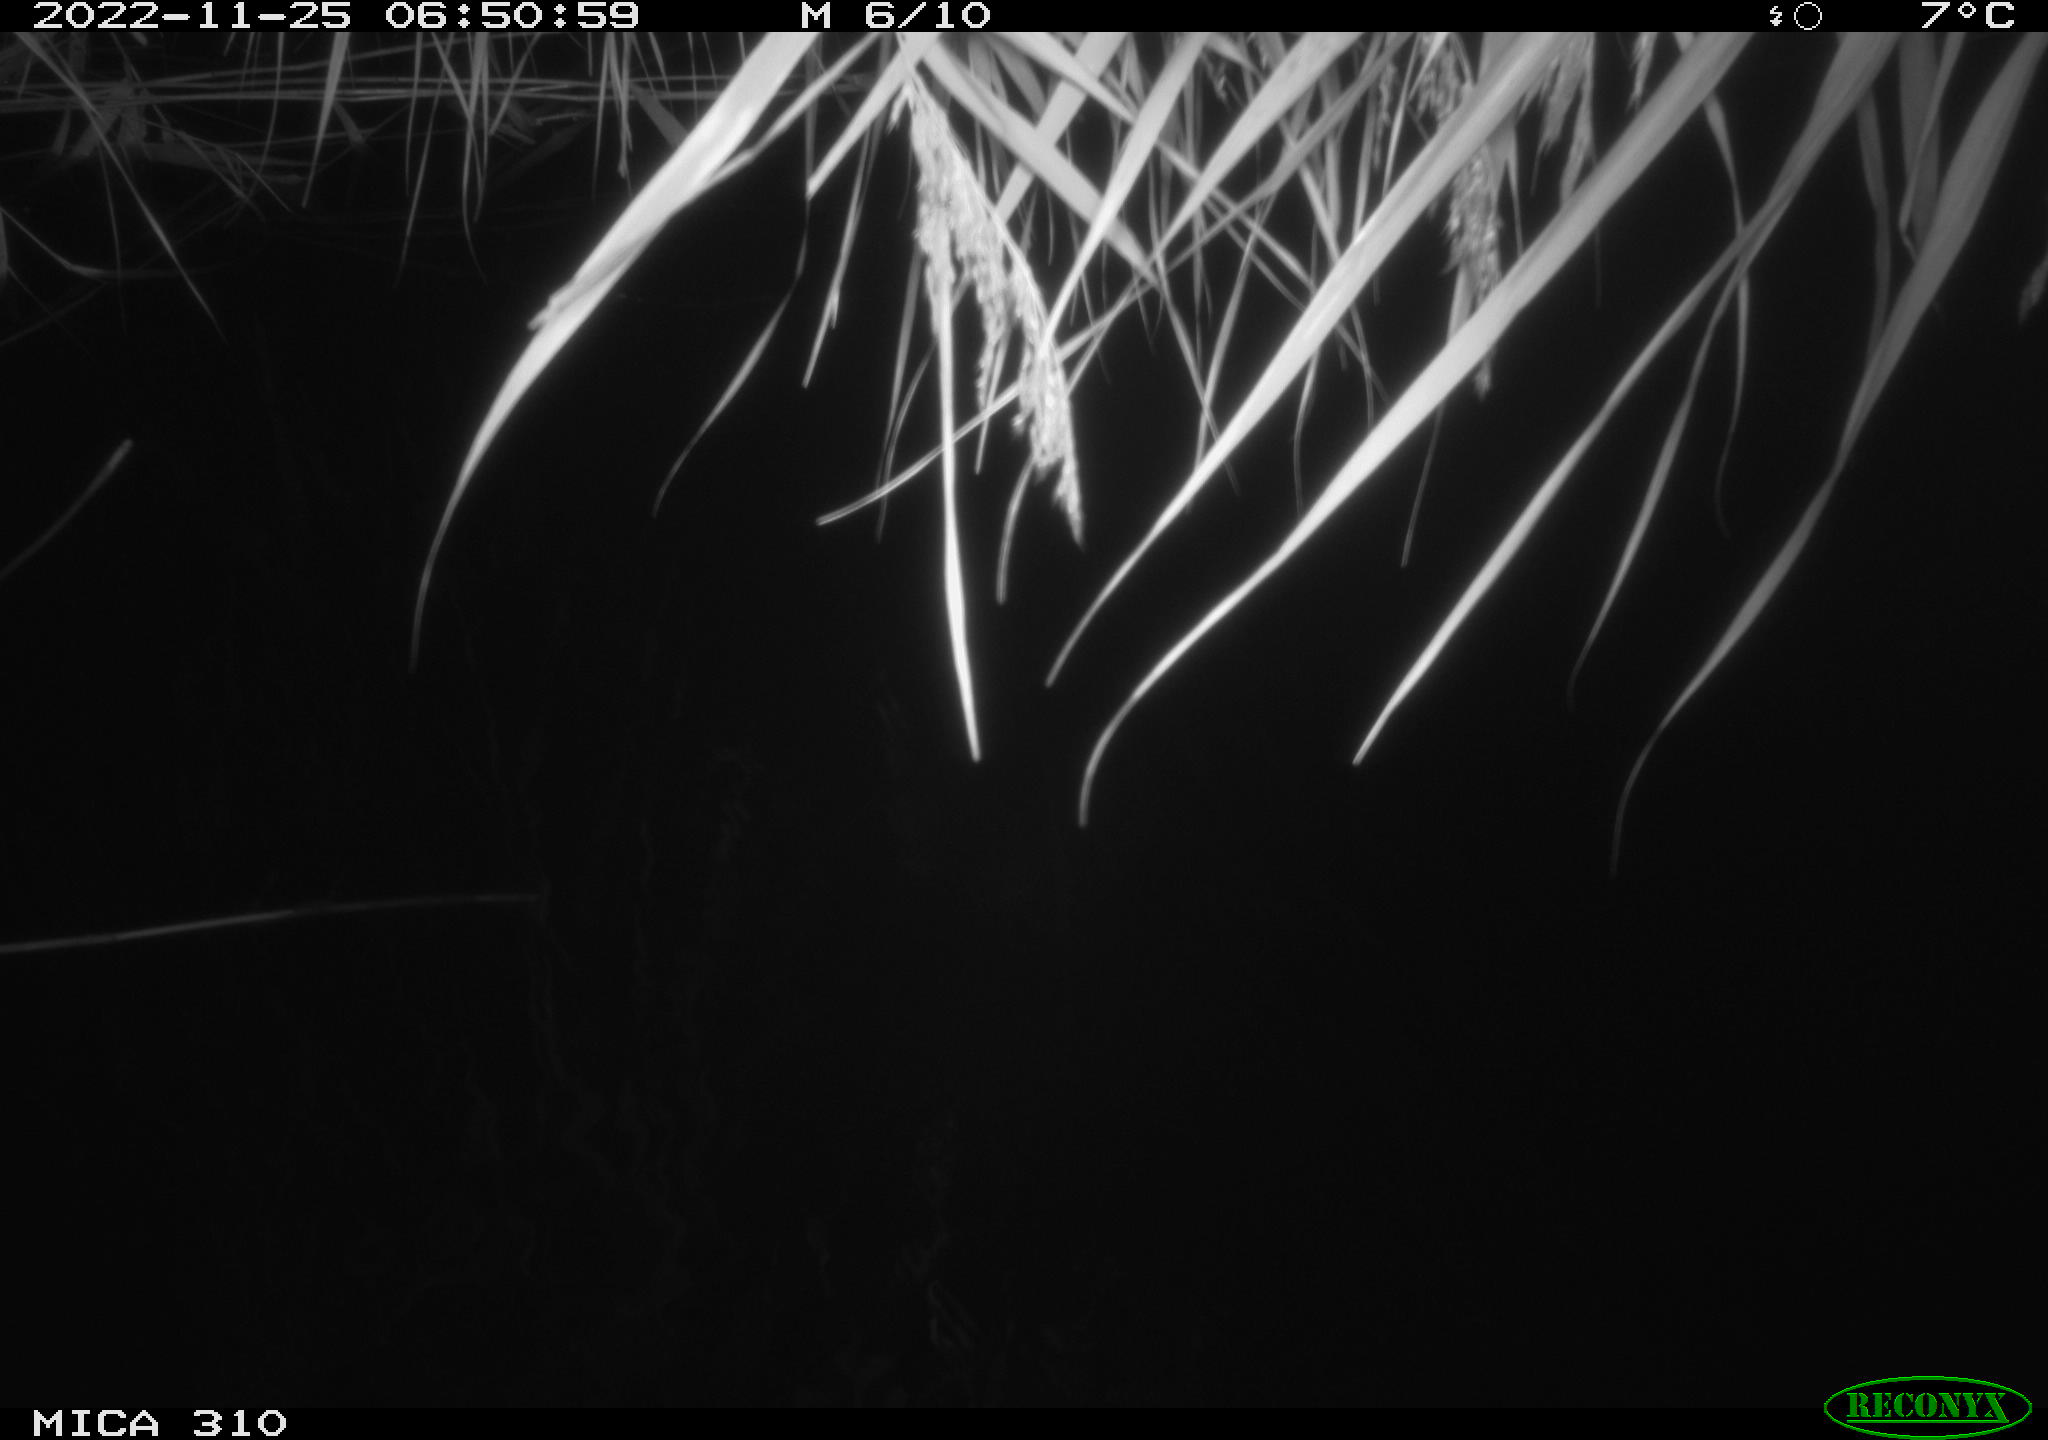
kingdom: Animalia
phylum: Chordata
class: Mammalia
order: Rodentia
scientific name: Rodentia
